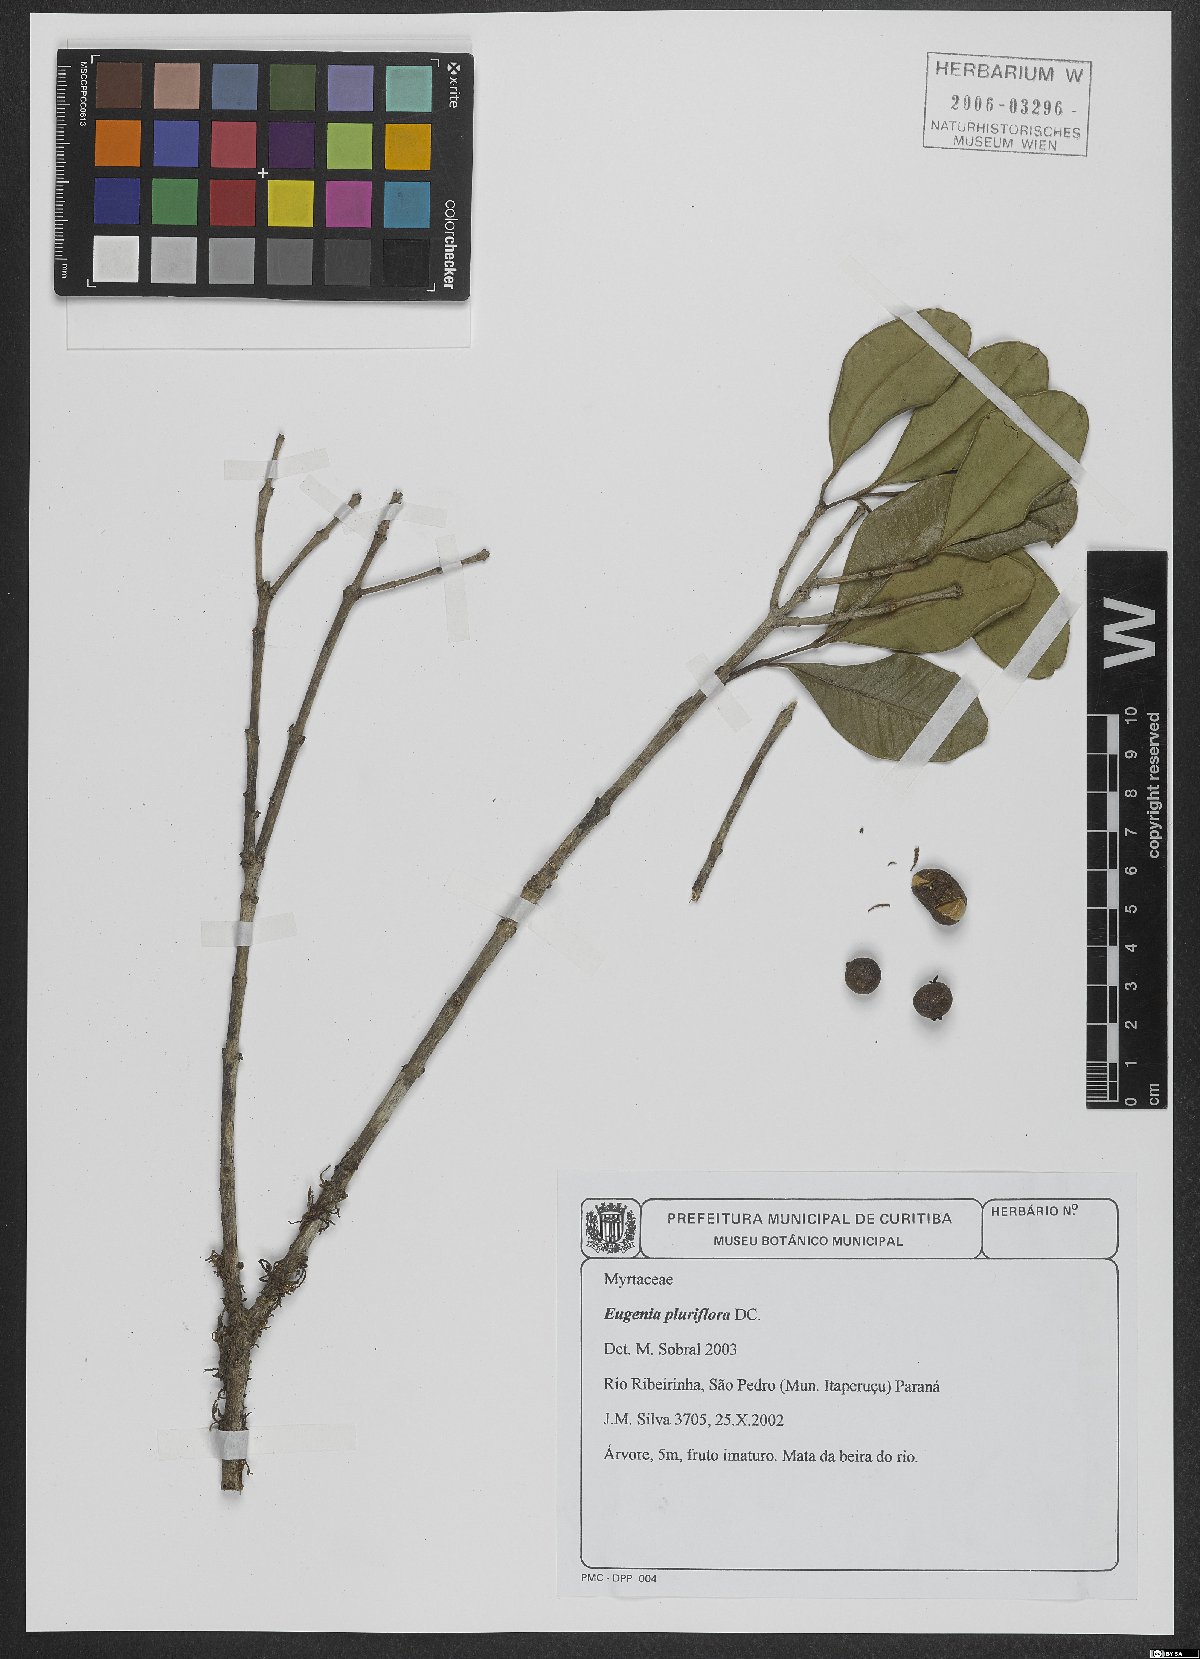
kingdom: Plantae
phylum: Tracheophyta
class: Magnoliopsida
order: Myrtales
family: Myrtaceae
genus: Eugenia
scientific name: Eugenia pluriflora
